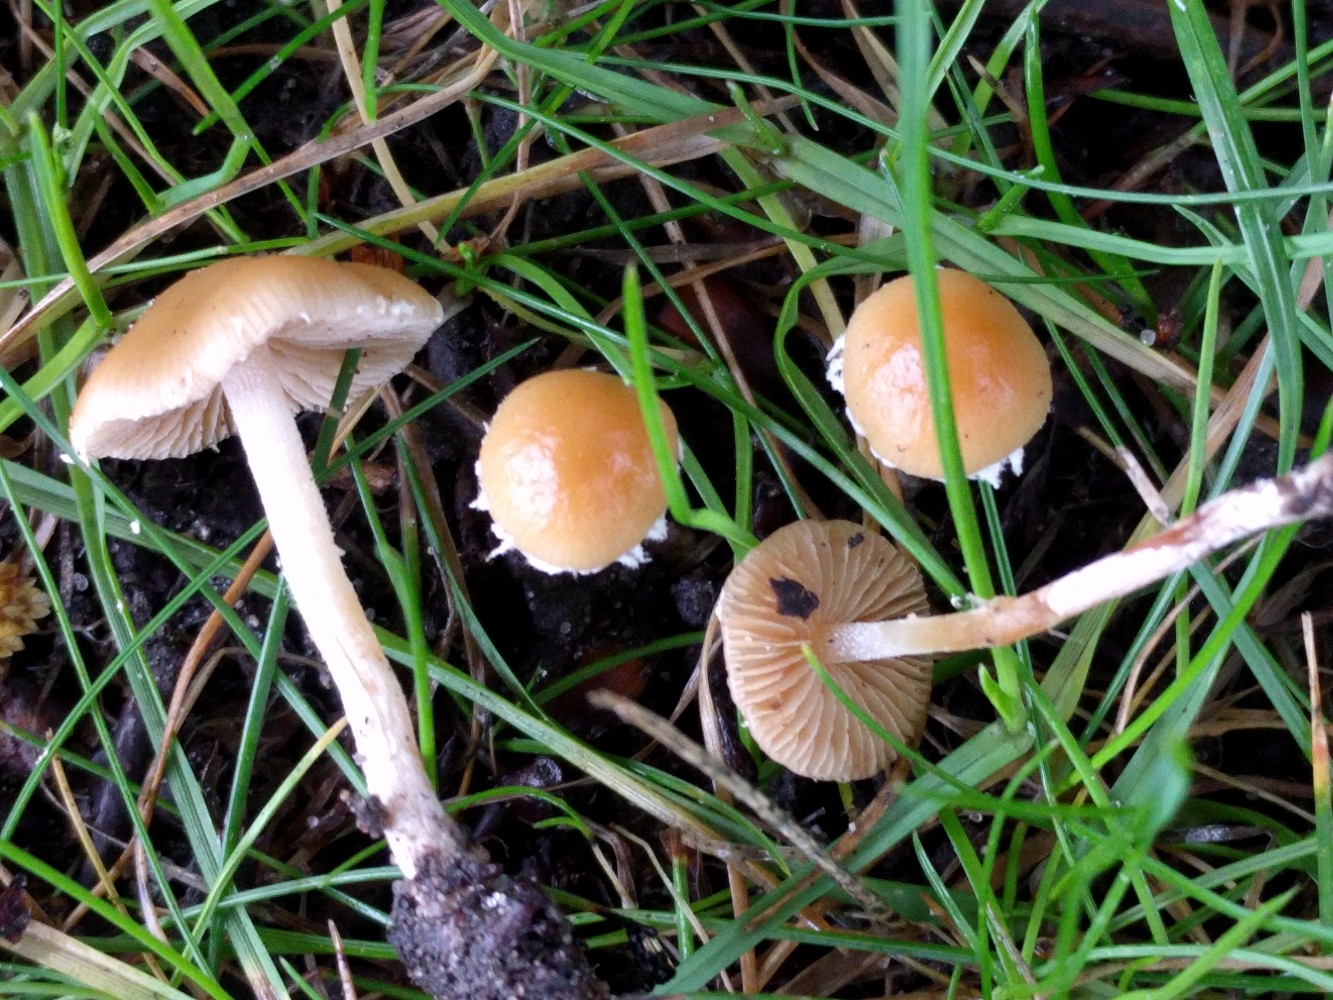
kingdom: Fungi
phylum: Basidiomycota
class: Agaricomycetes
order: Agaricales
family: Bolbitiaceae
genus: Pholiotina
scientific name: Pholiotina
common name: dansehat
